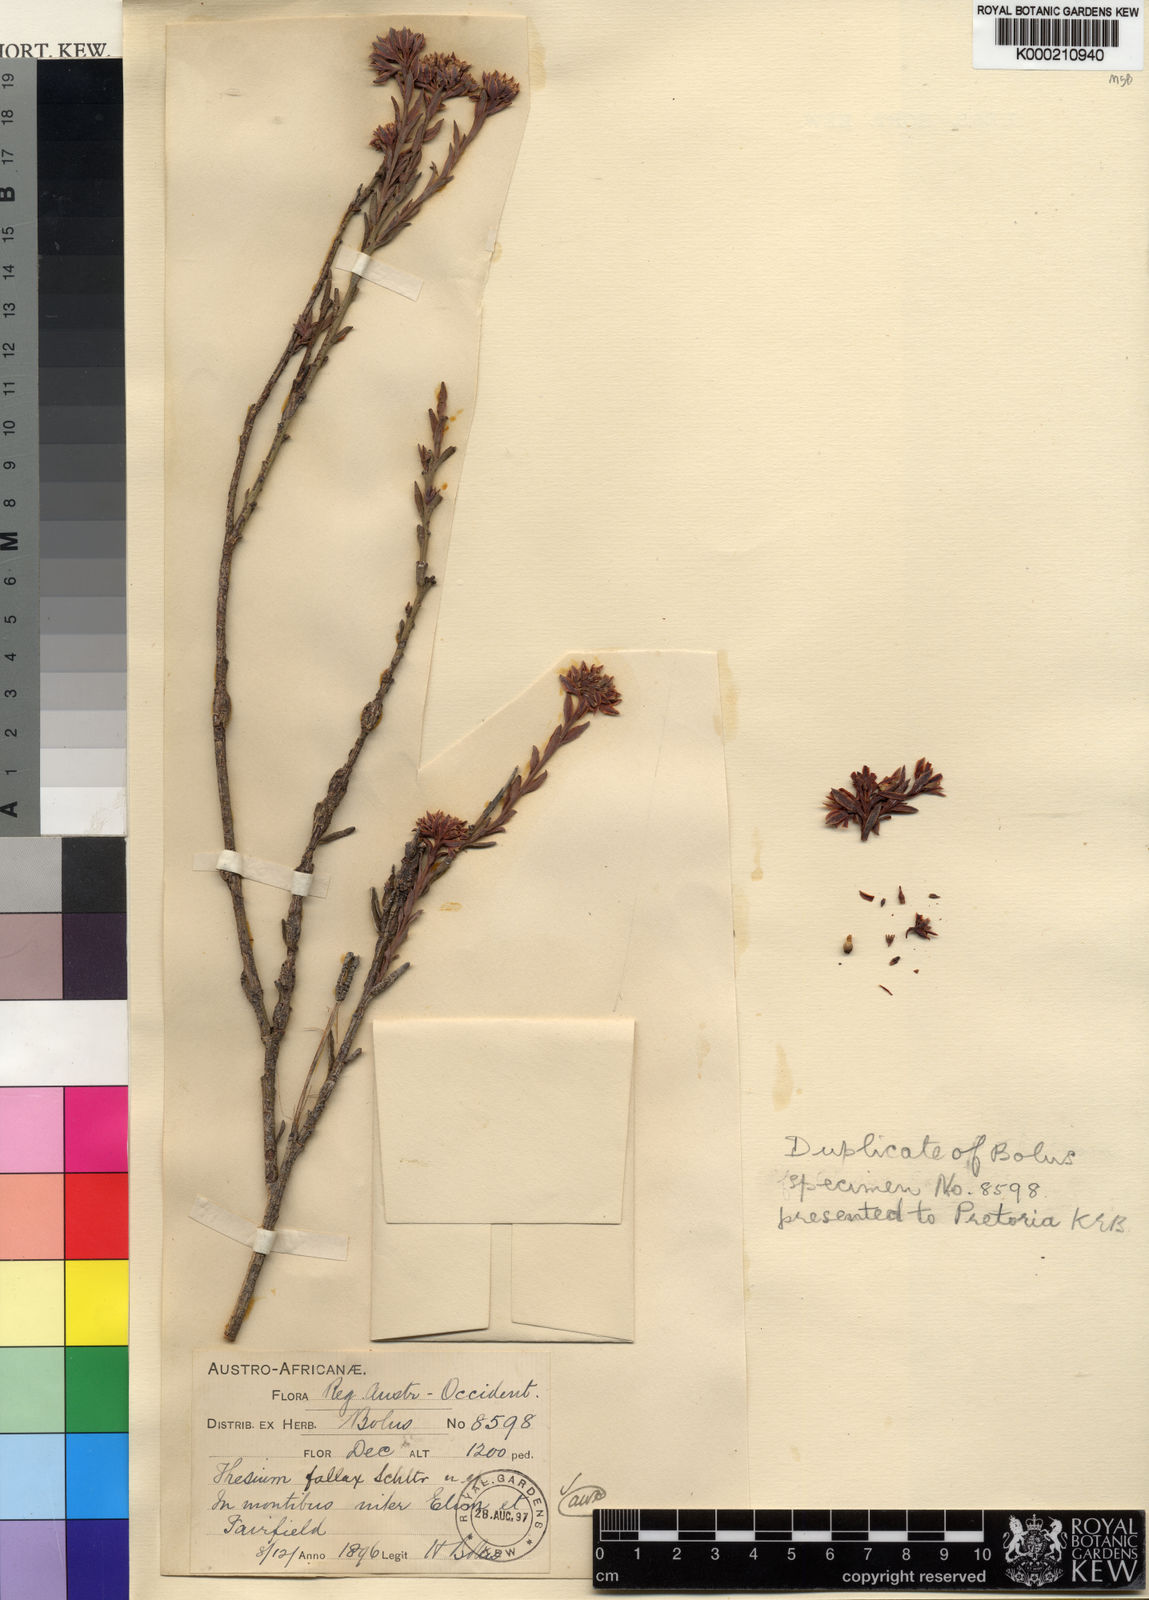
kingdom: Plantae
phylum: Tracheophyta
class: Magnoliopsida
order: Santalales
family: Thesiaceae
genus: Thesium
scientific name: Thesium fallax
